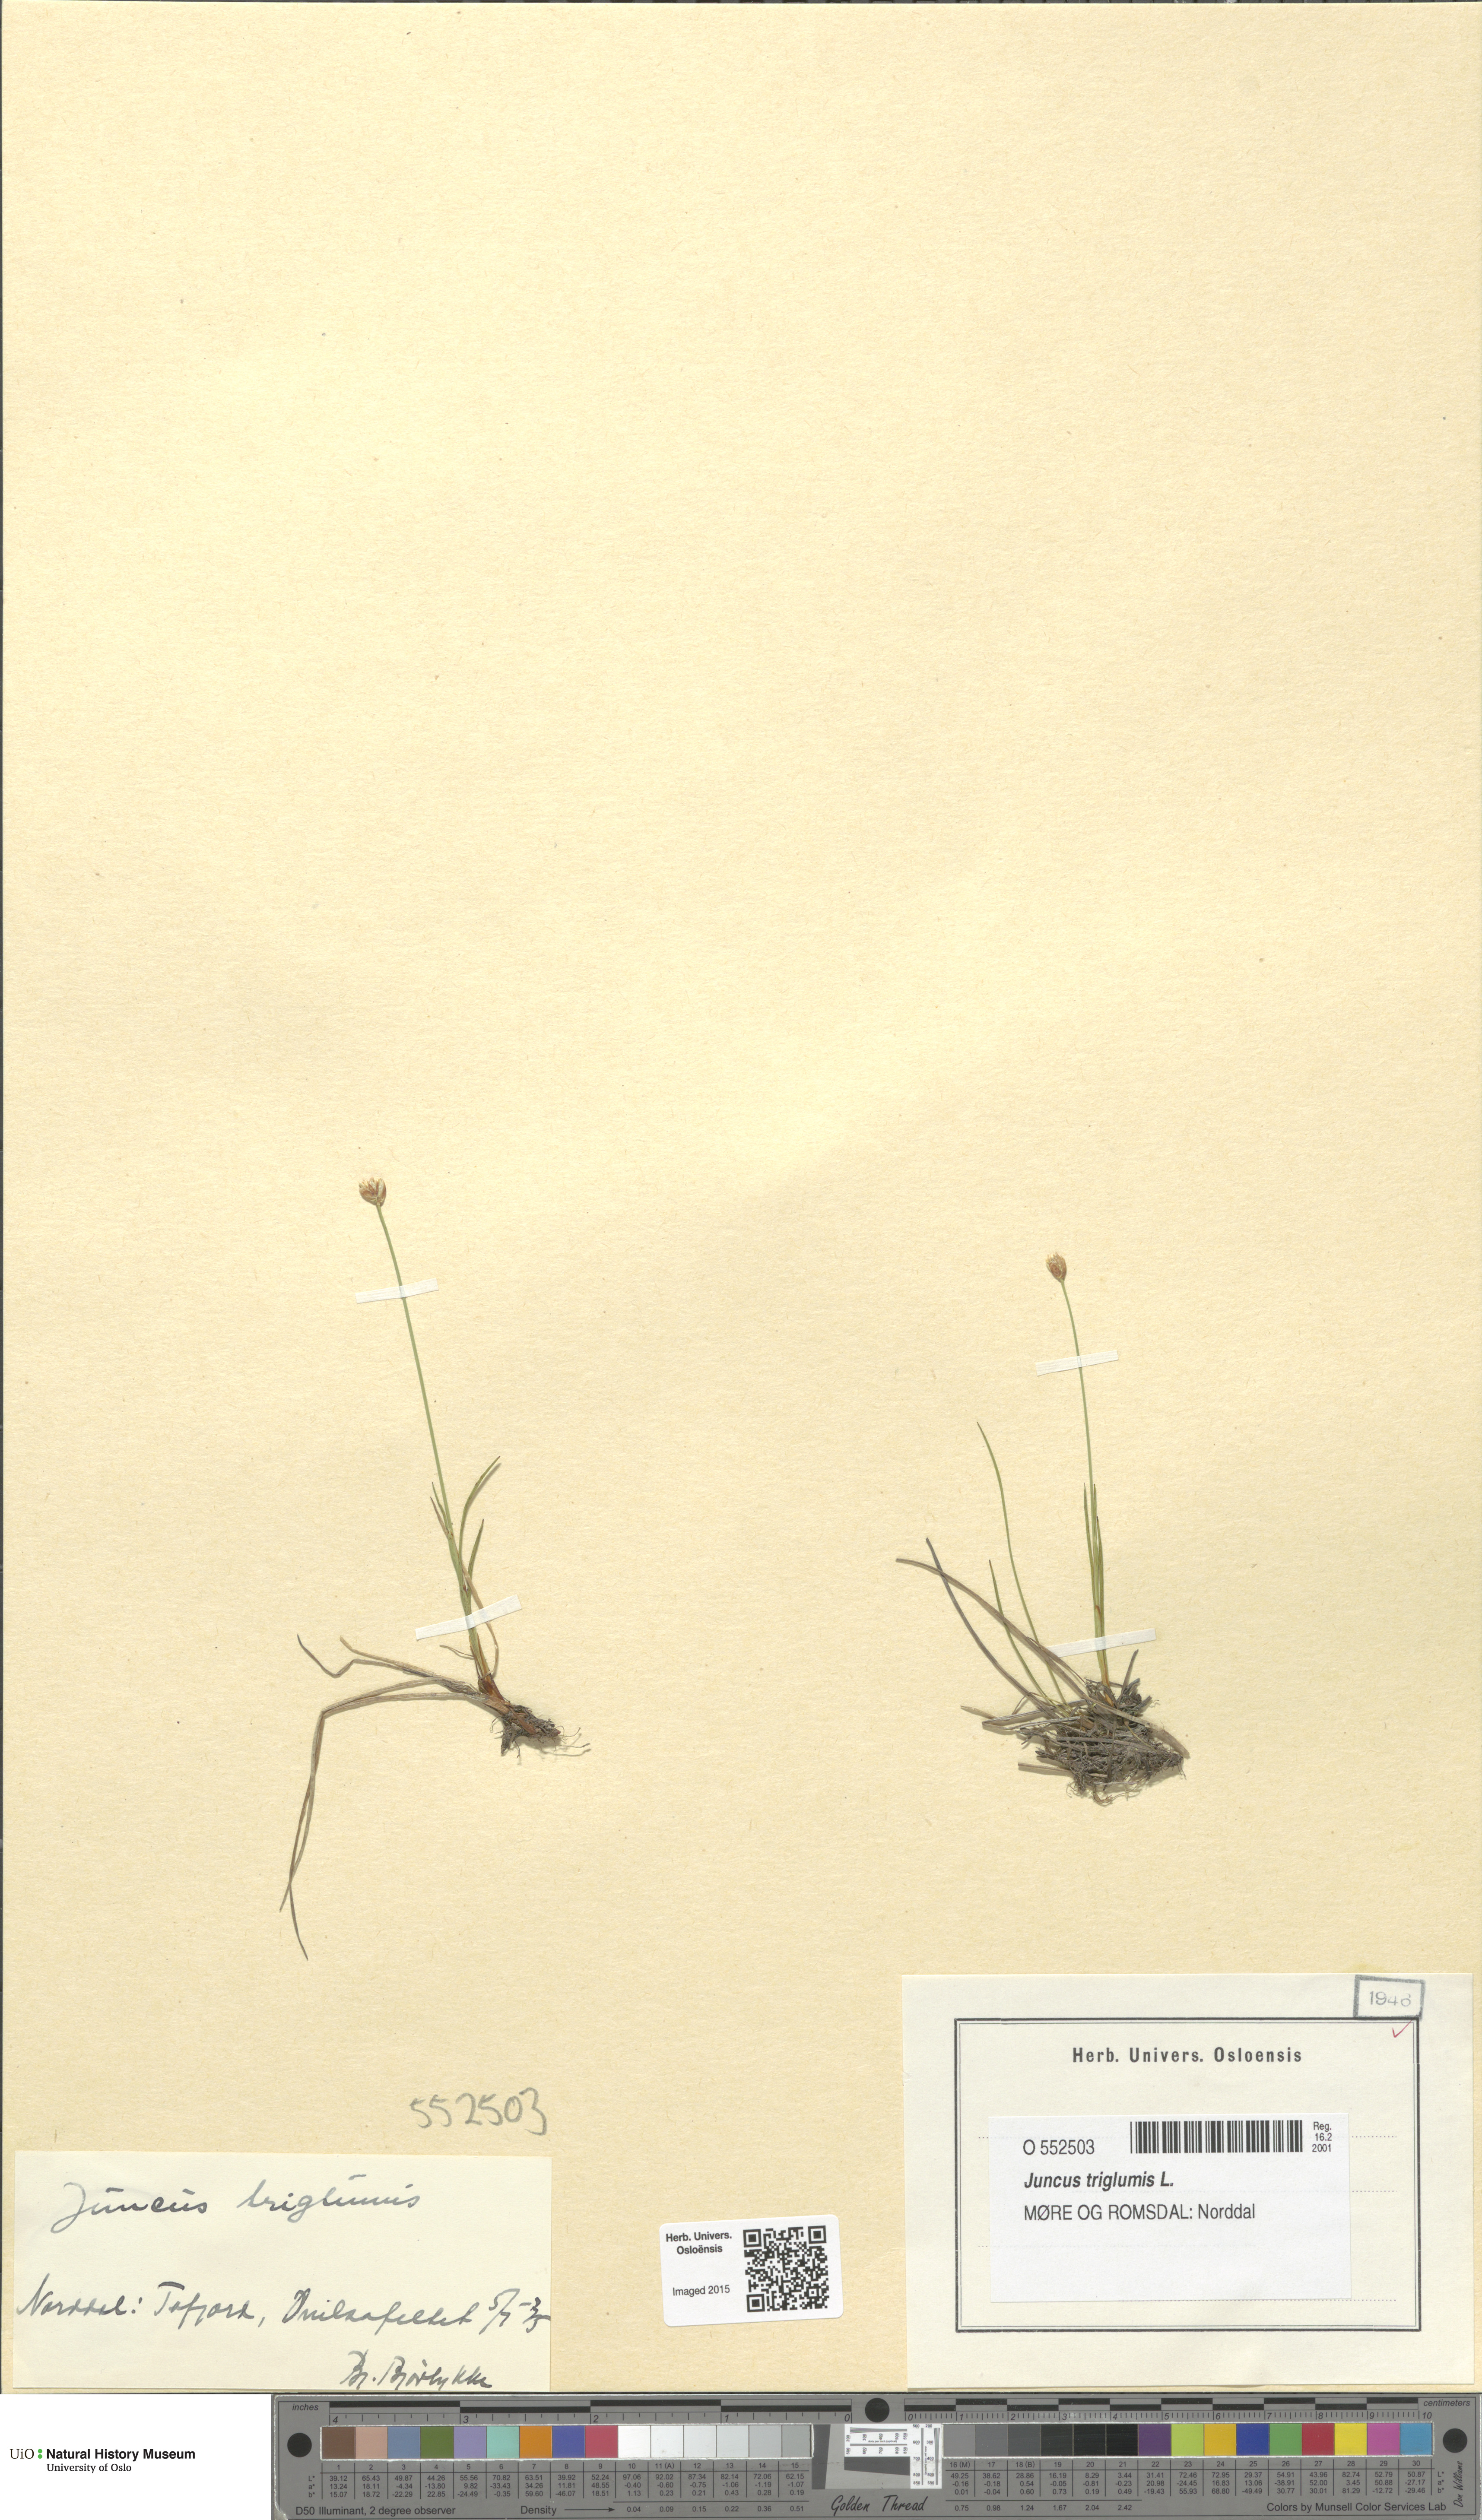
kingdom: Plantae
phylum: Tracheophyta
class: Liliopsida
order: Poales
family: Juncaceae
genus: Juncus
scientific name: Juncus triglumis
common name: Three-flowered rush
